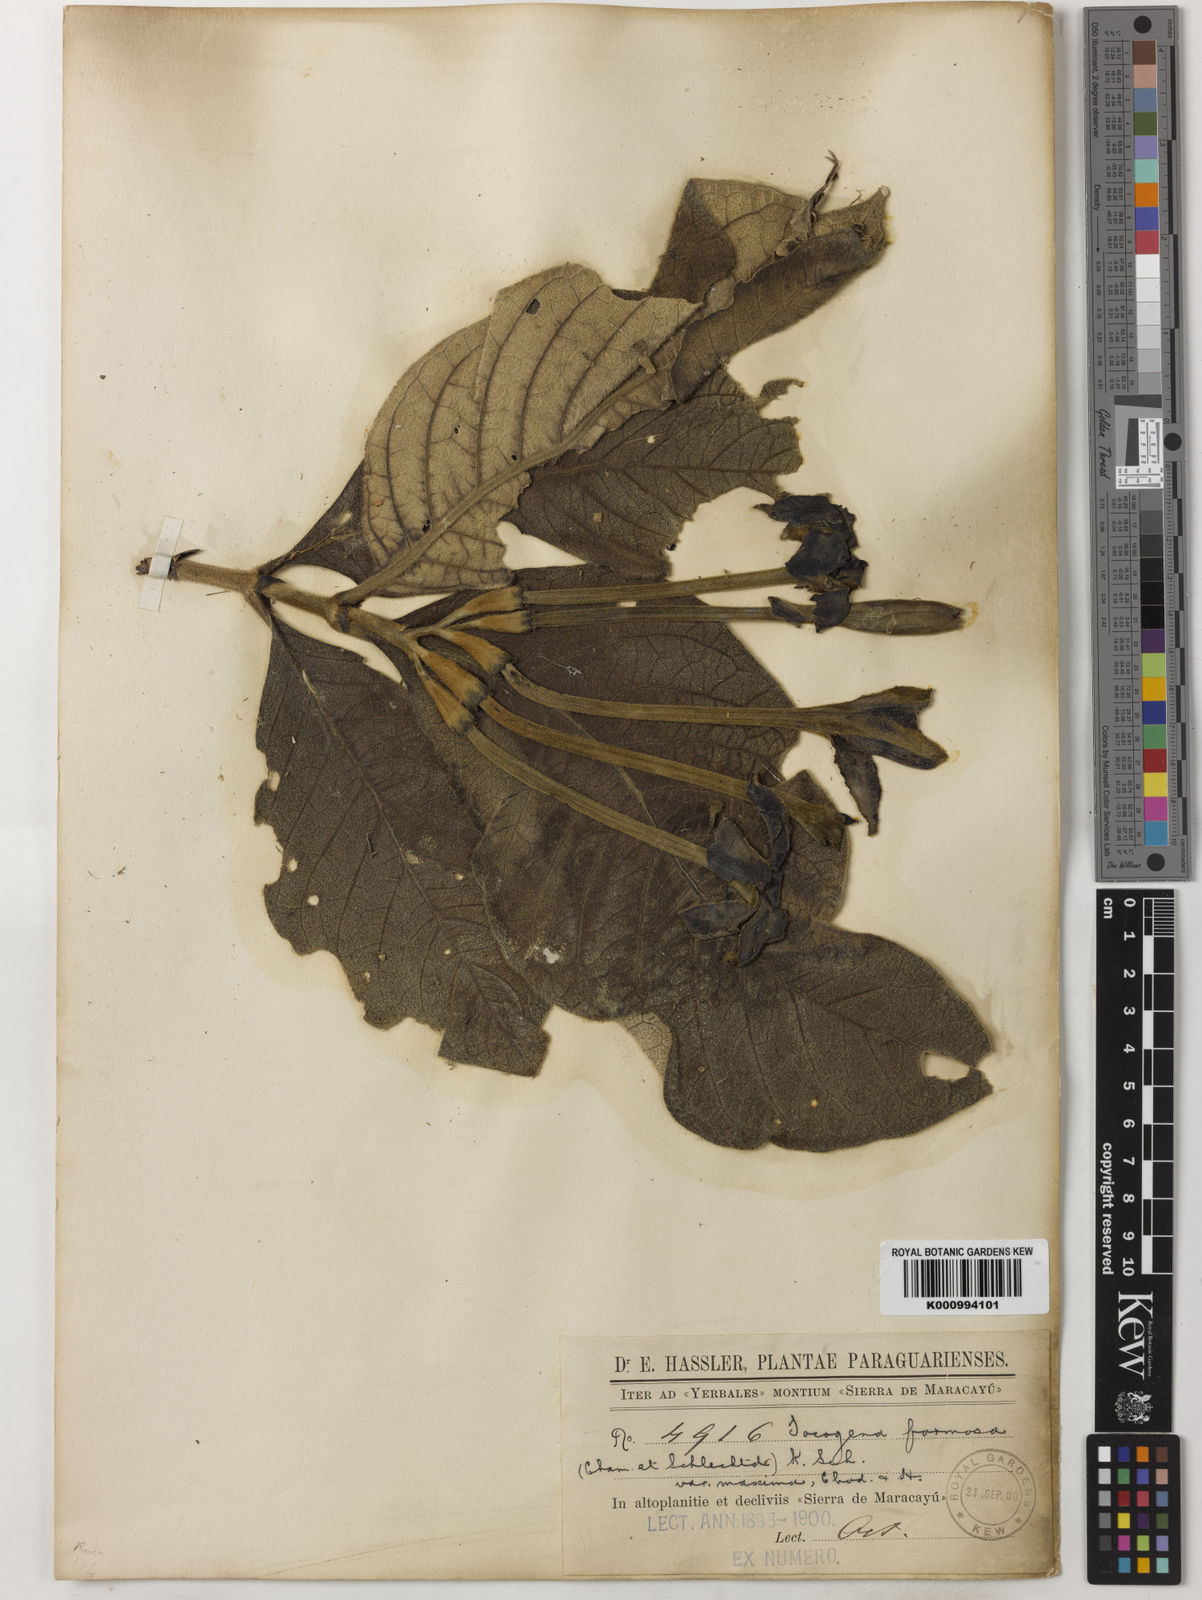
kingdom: Plantae
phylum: Tracheophyta
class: Magnoliopsida
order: Gentianales
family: Rubiaceae
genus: Tocoyena
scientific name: Tocoyena formosa
